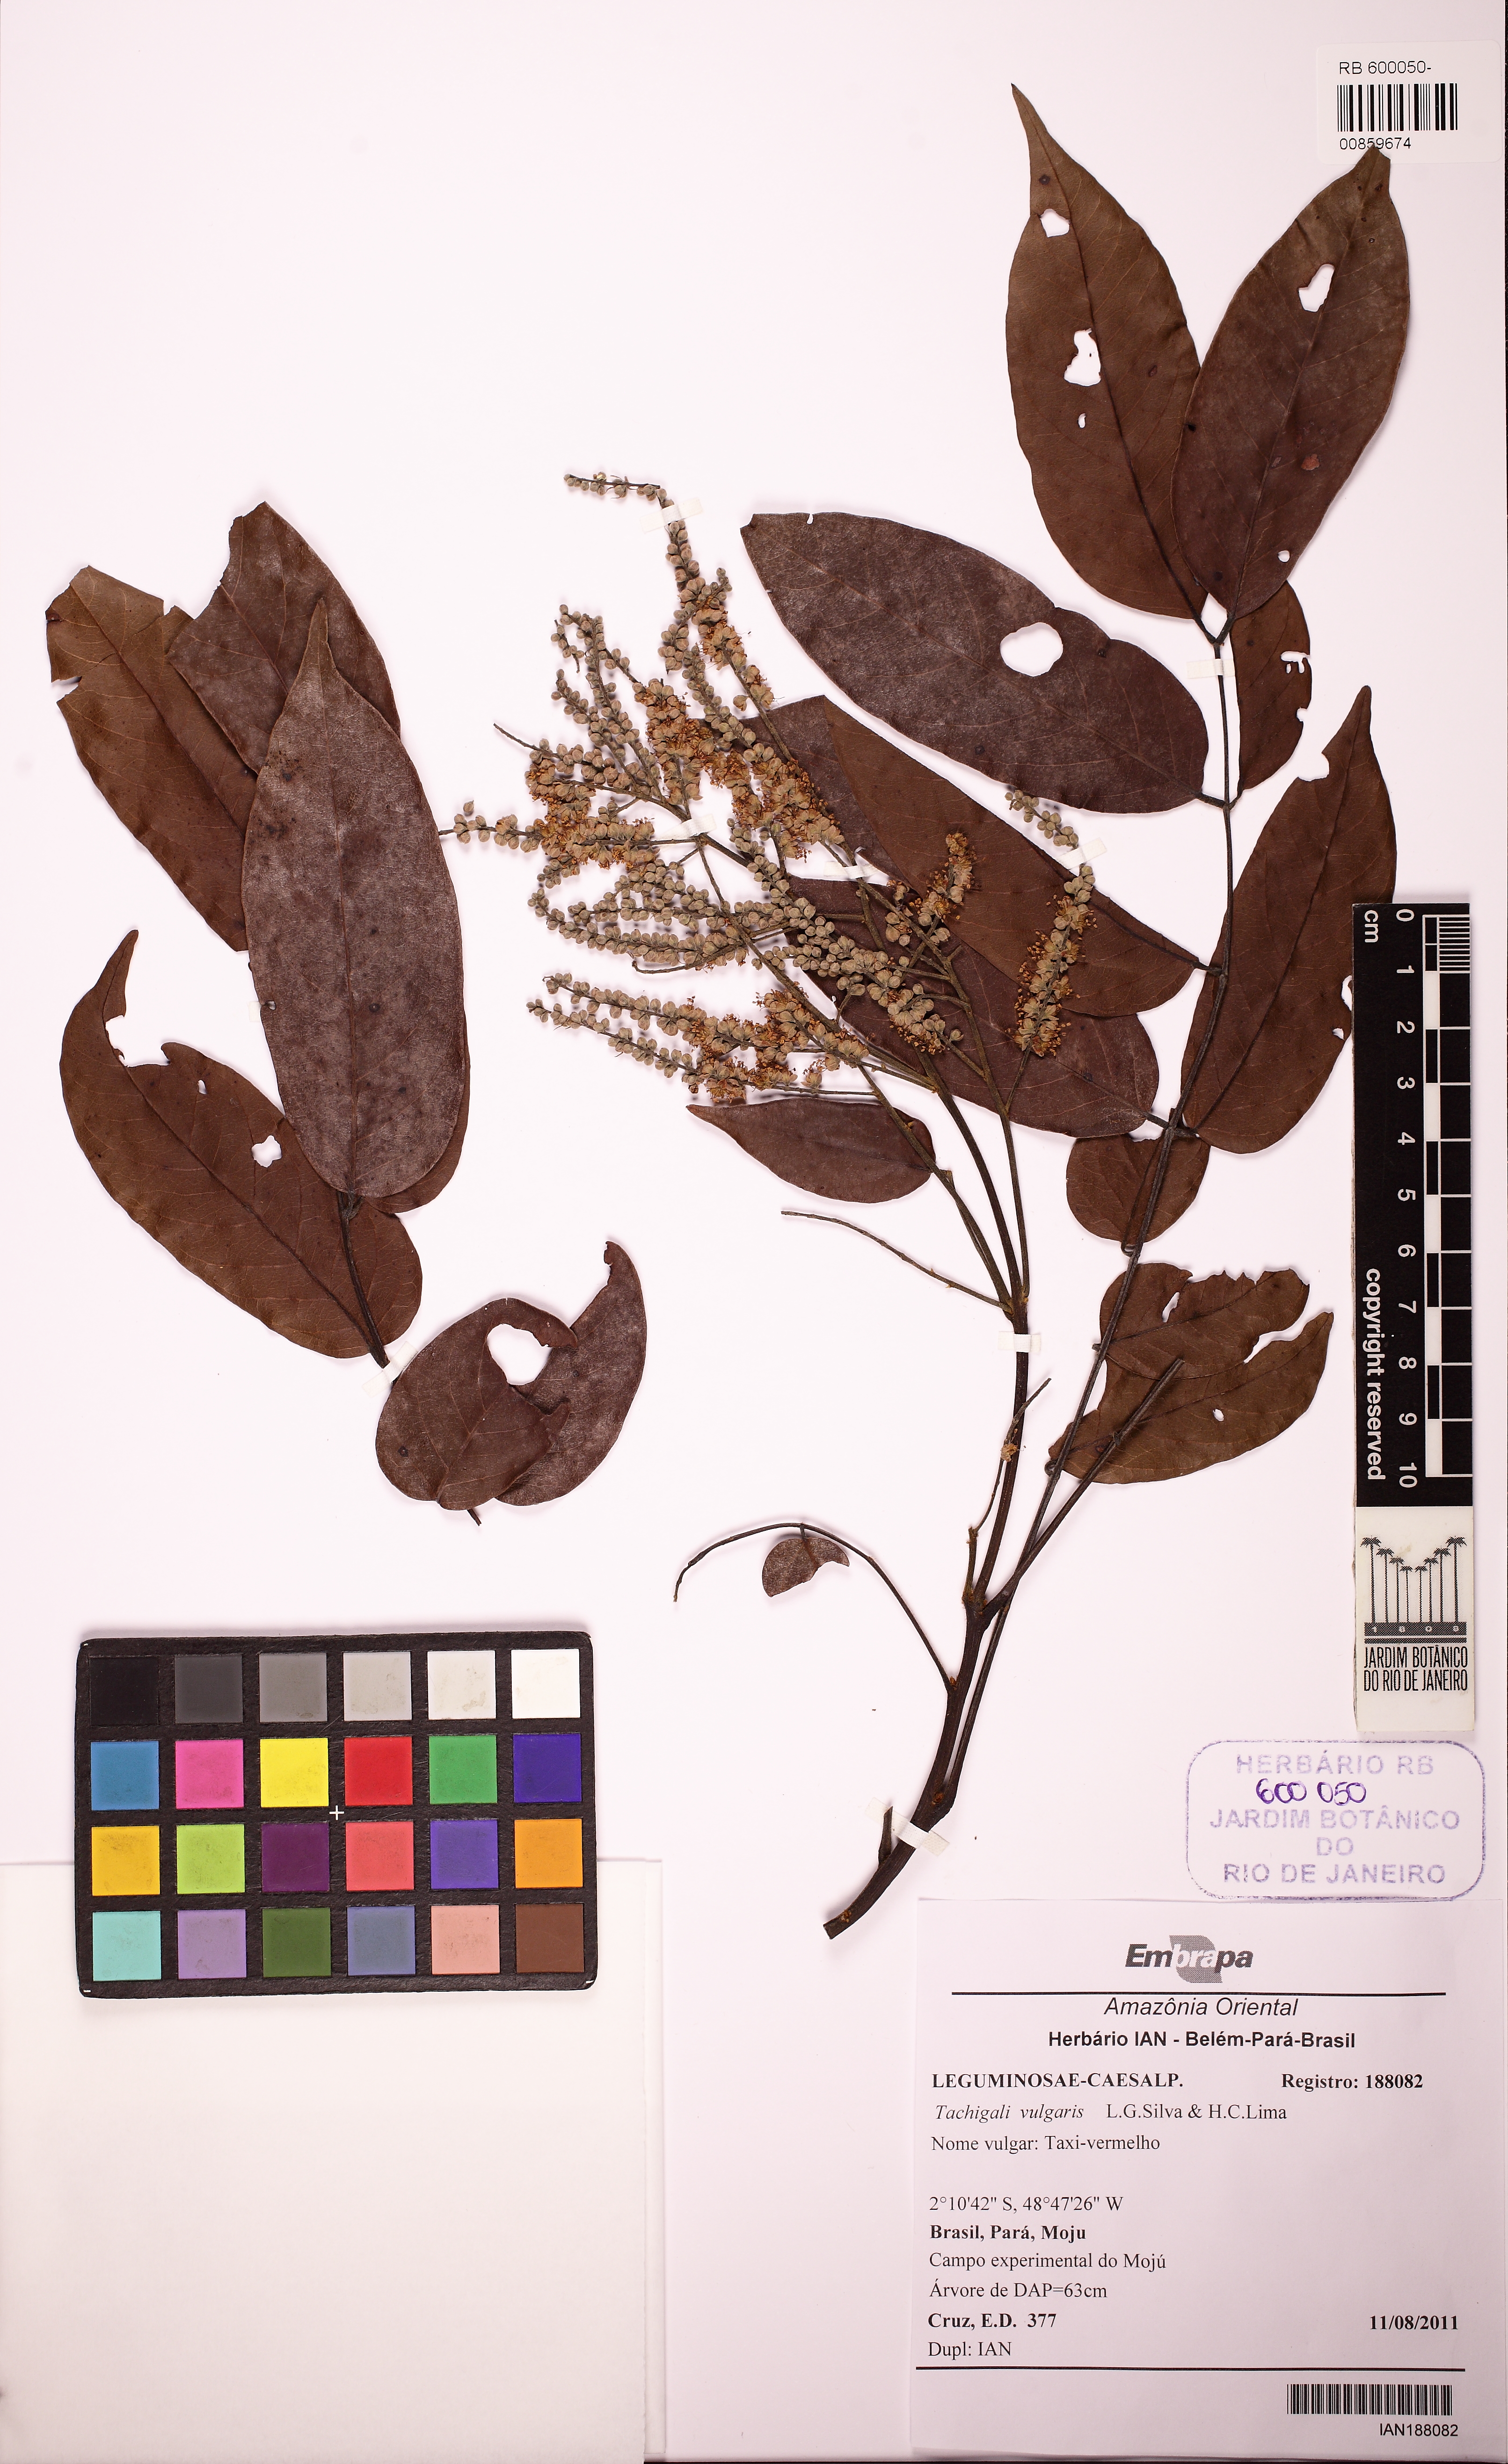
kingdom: Plantae
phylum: Tracheophyta
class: Magnoliopsida
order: Fabales
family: Fabaceae
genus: Tachigali
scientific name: Tachigali vulgaris
